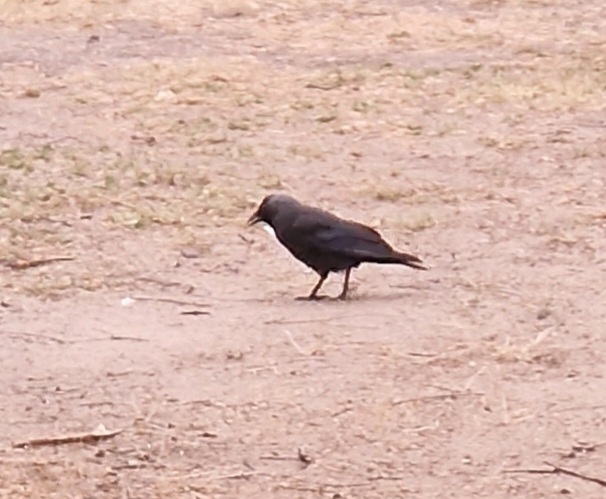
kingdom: Animalia
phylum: Chordata
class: Aves
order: Passeriformes
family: Corvidae
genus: Coloeus
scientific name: Coloeus monedula
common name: Allike
